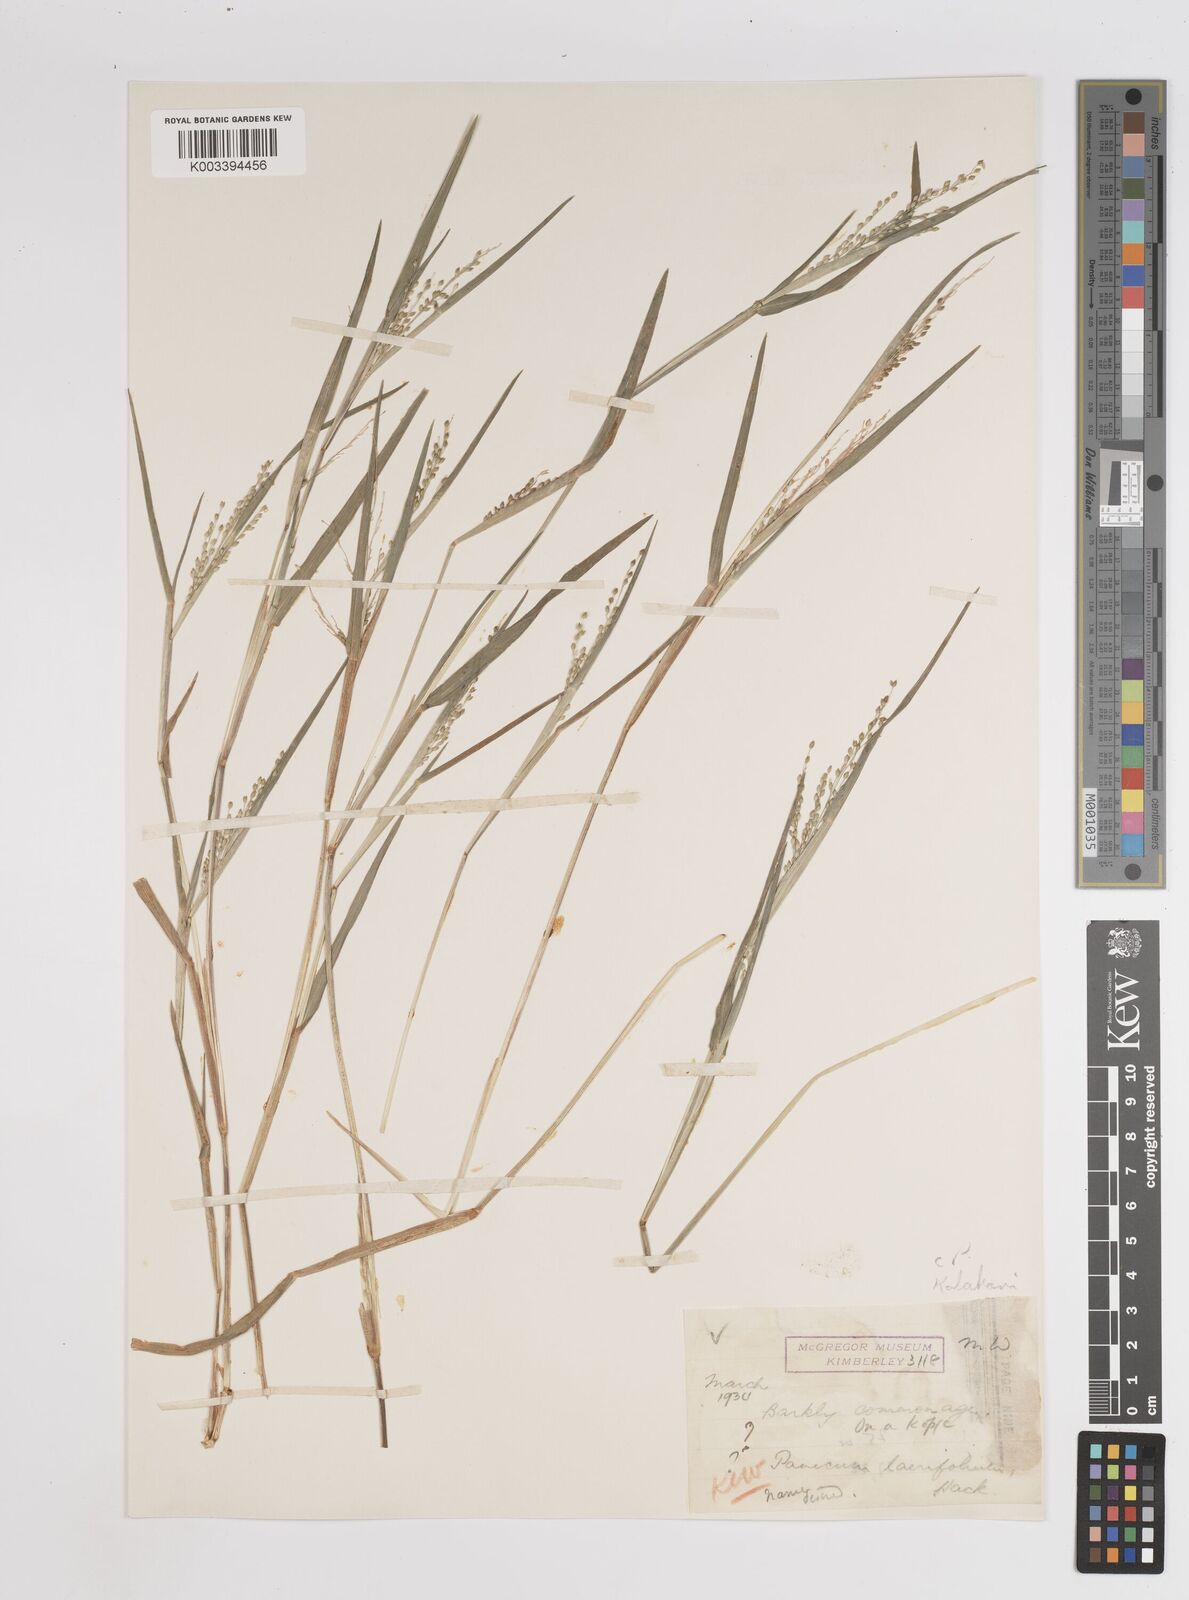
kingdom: Plantae
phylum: Tracheophyta
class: Liliopsida
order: Poales
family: Poaceae
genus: Panicum
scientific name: Panicum
